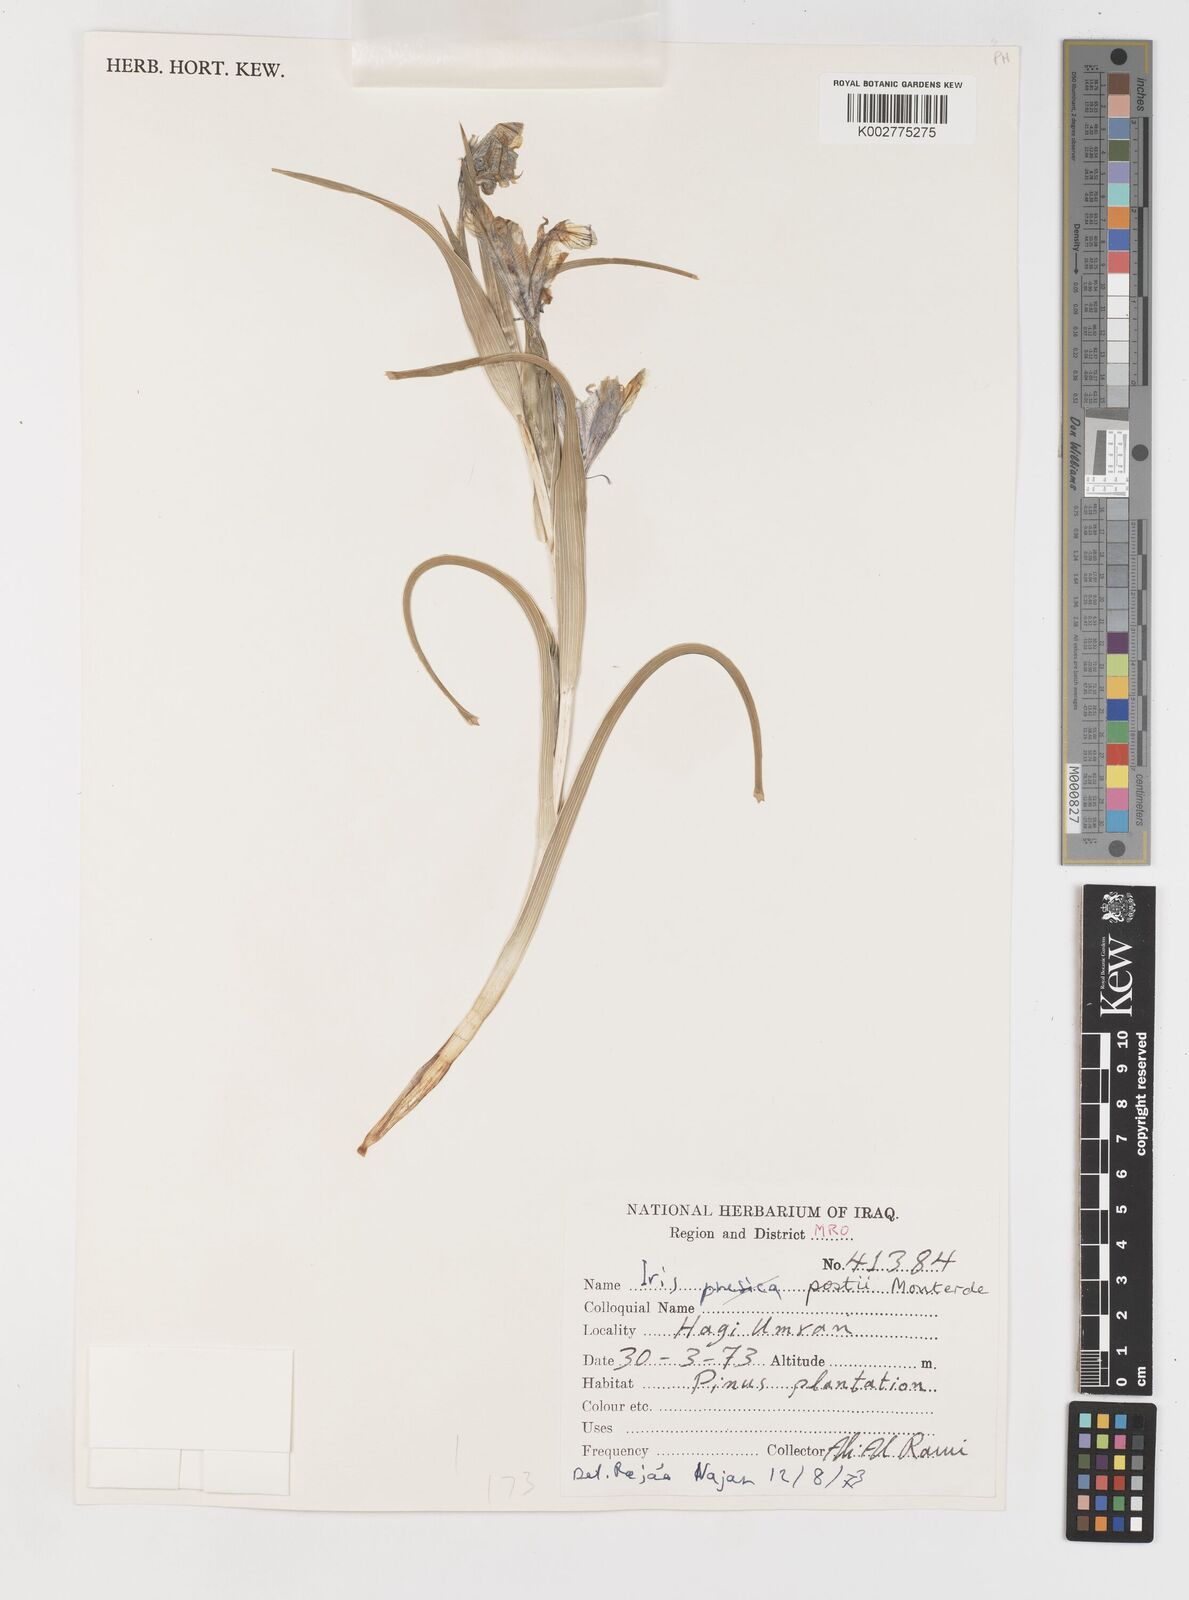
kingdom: Plantae
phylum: Tracheophyta
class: Liliopsida
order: Asparagales
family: Iridaceae
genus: Iris
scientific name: Iris postii
